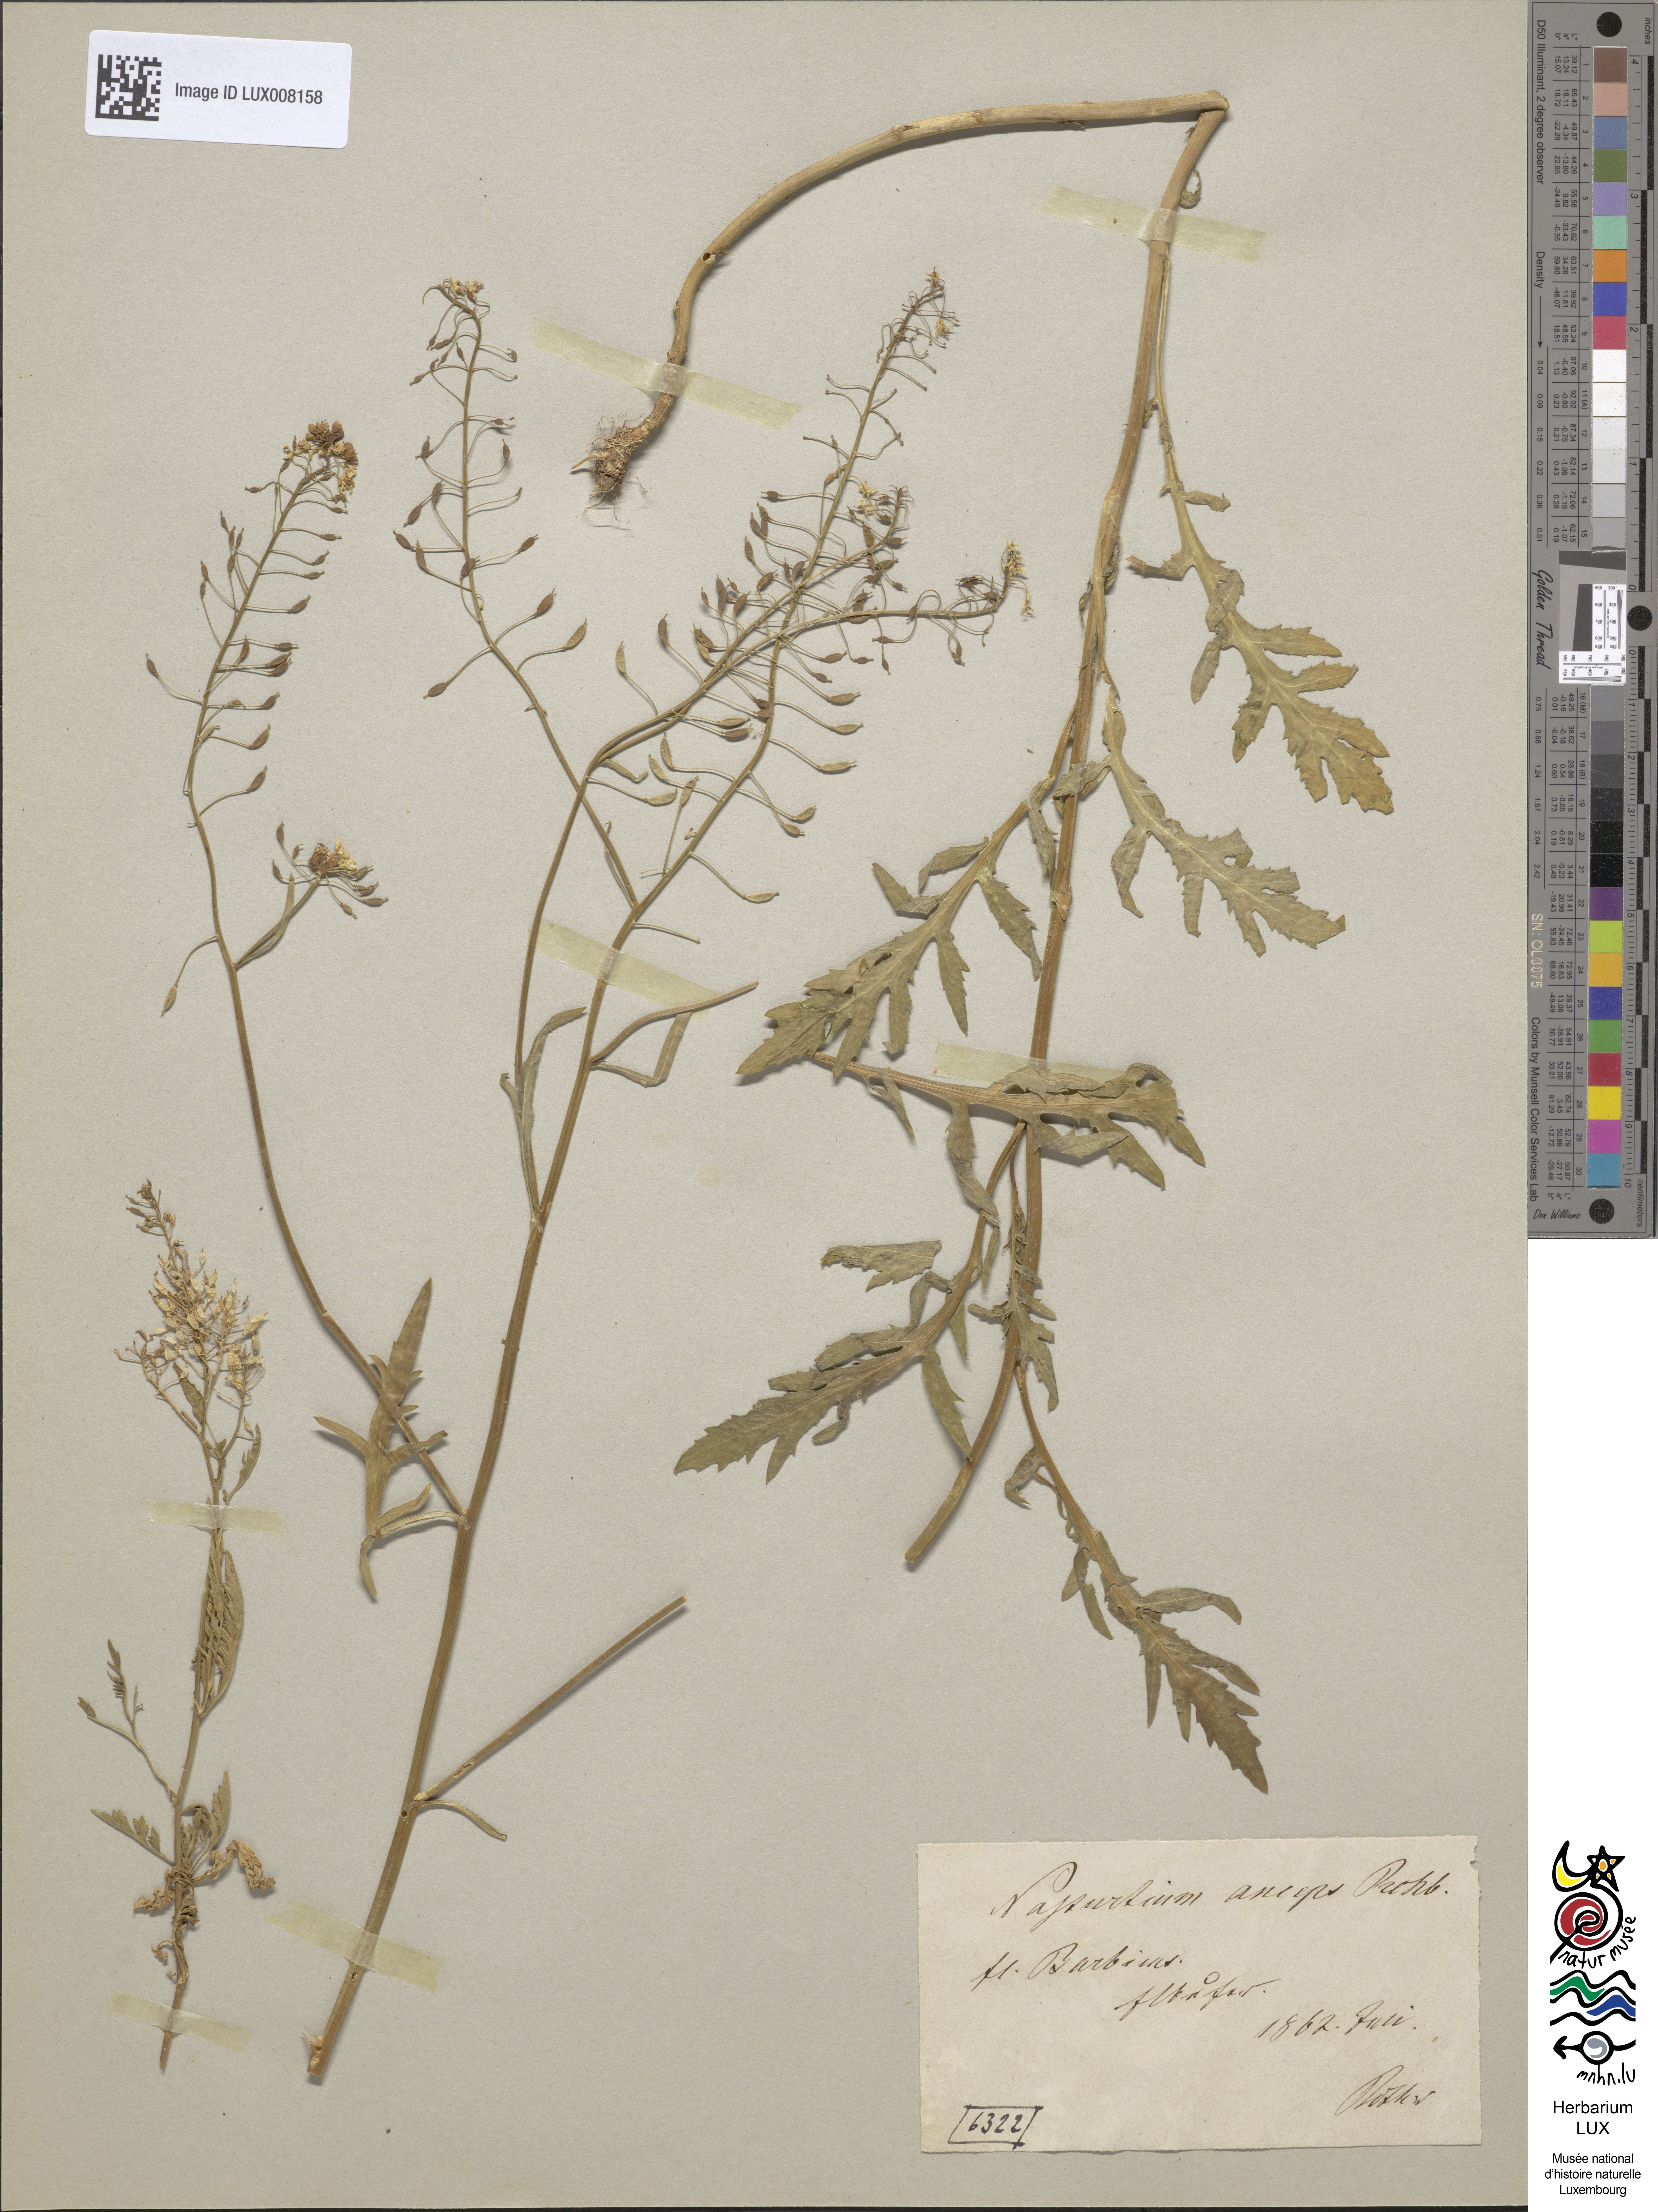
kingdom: Plantae
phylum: Tracheophyta
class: Magnoliopsida
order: Brassicales
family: Brassicaceae
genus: Rorippa
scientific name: Rorippa anceps
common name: Rorippa
